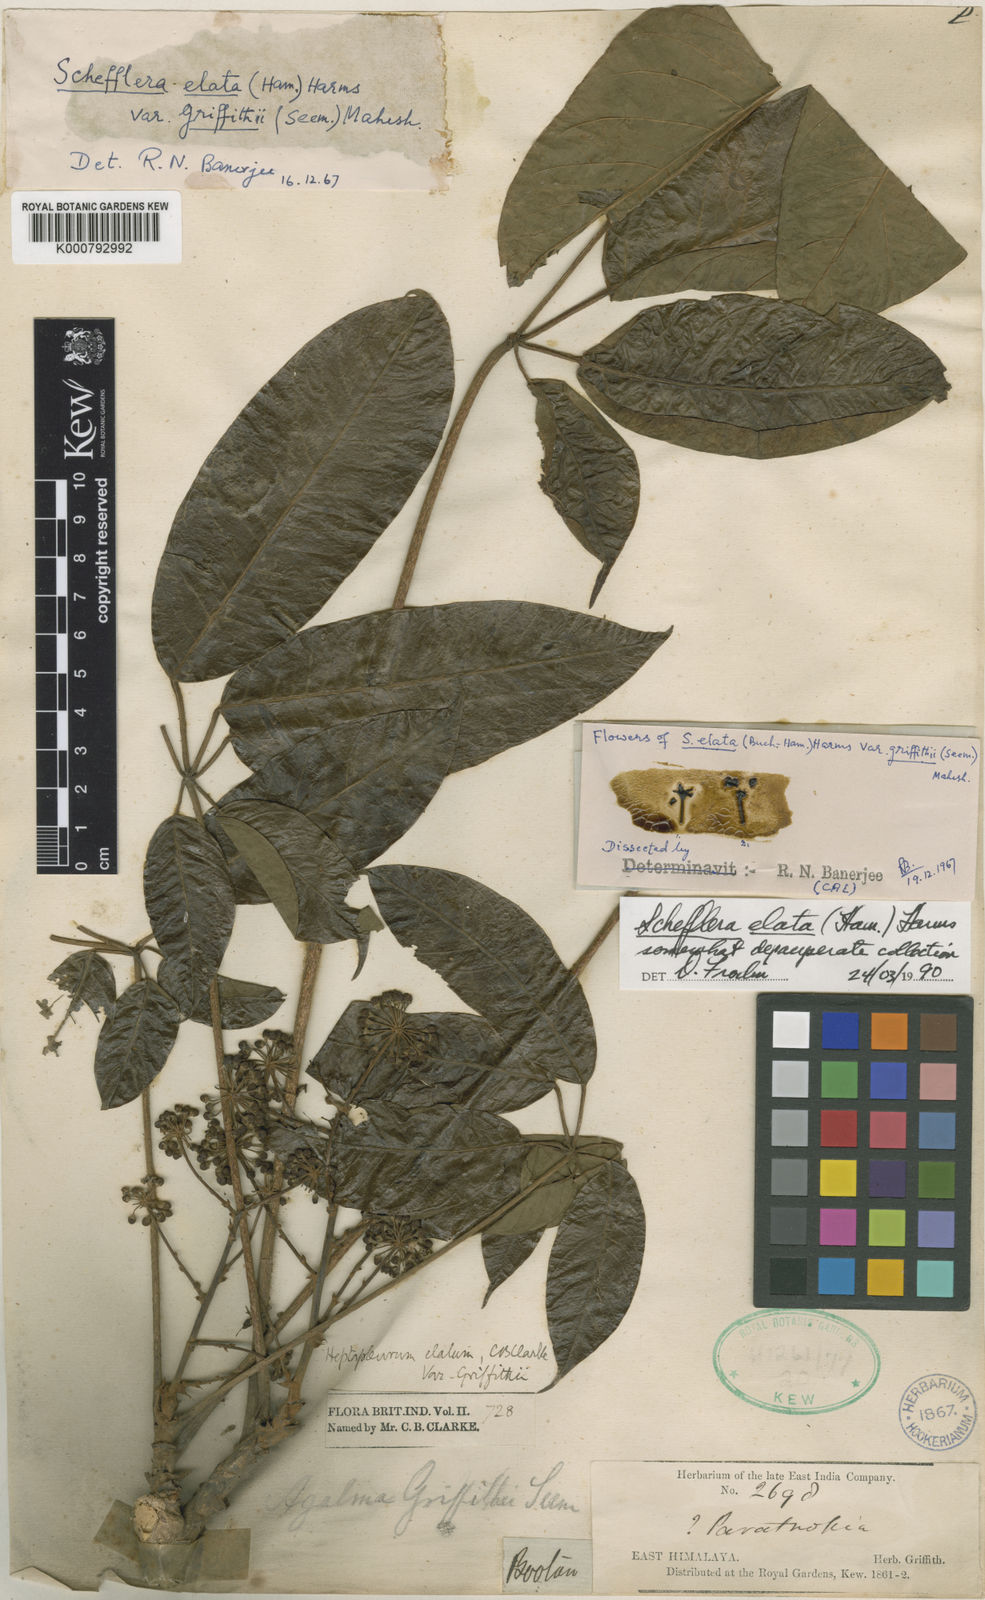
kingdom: Plantae
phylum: Tracheophyta
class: Magnoliopsida
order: Apiales
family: Araliaceae
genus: Heptapleurum
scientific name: Heptapleurum elatum
